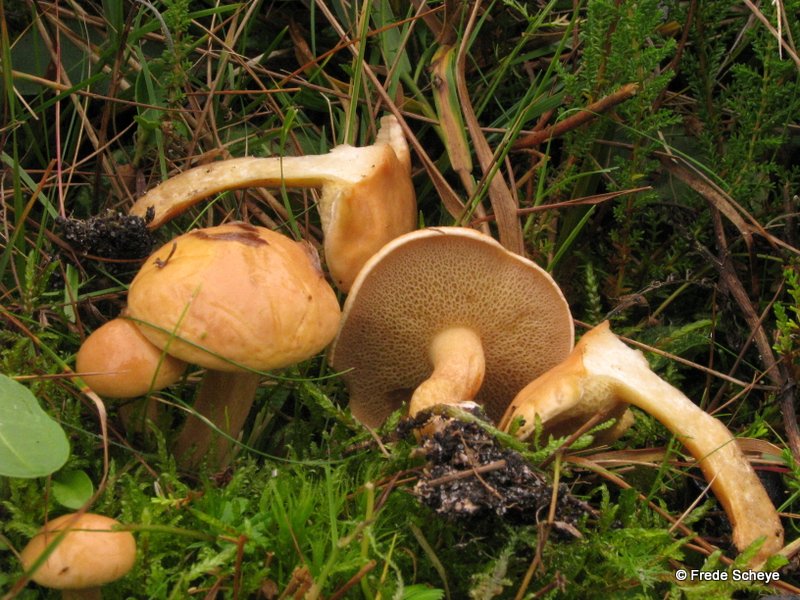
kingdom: Fungi
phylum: Basidiomycota
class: Agaricomycetes
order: Boletales
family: Suillaceae
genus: Suillus
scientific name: Suillus bovinus
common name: grovporet slimrørhat
